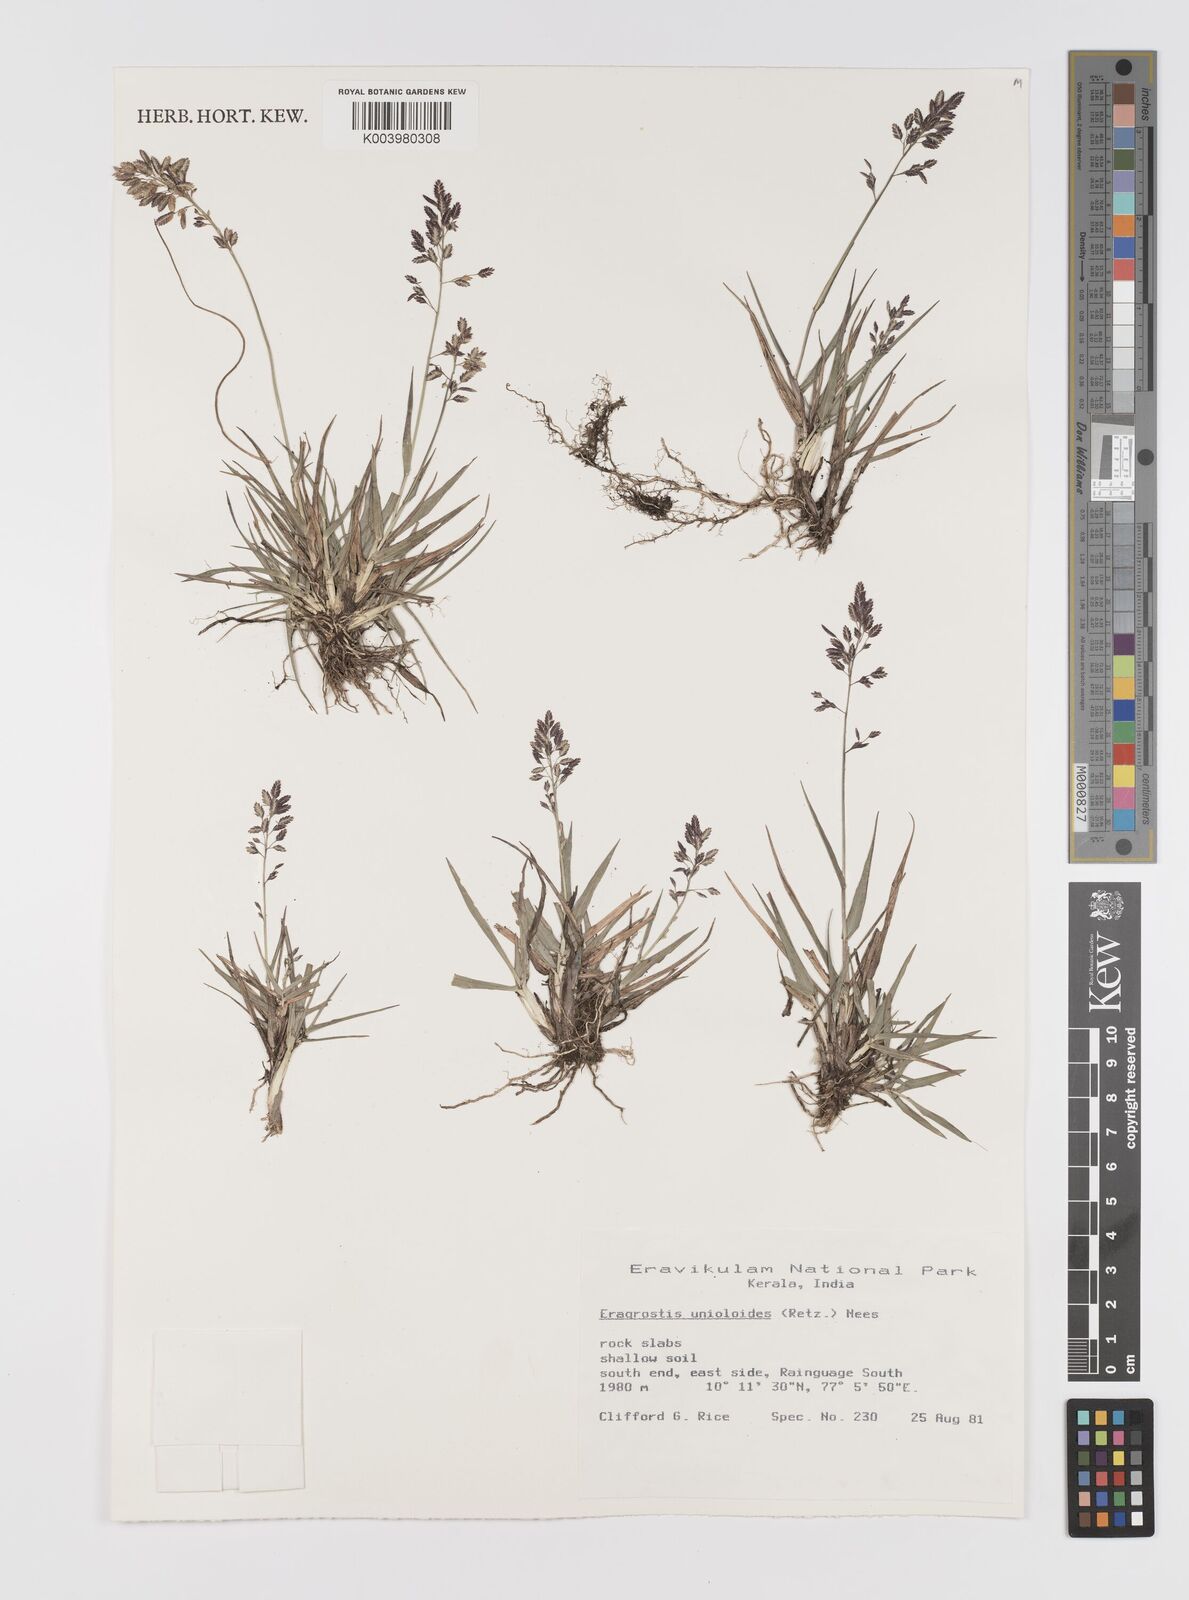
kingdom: Plantae
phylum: Tracheophyta
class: Liliopsida
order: Poales
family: Poaceae
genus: Eragrostis
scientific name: Eragrostis unioloides
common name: Chinese lovegrass
